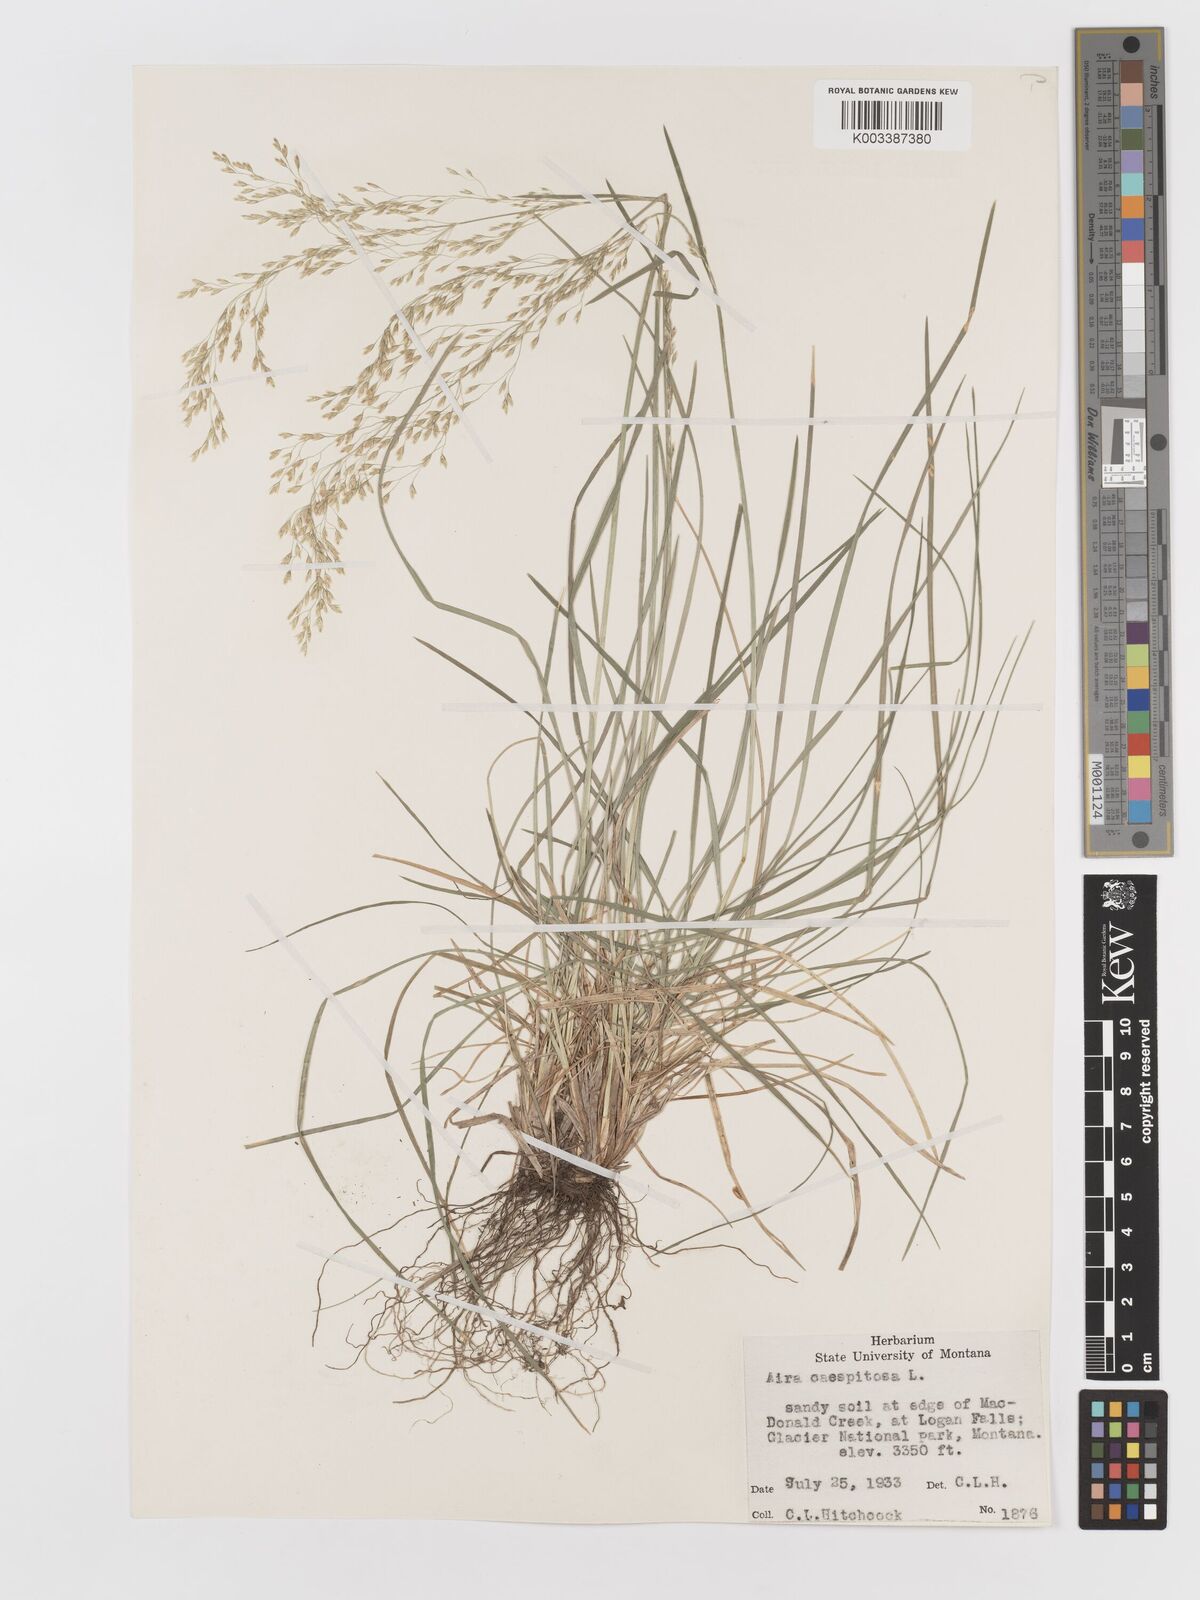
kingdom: Plantae
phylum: Tracheophyta
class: Liliopsida
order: Poales
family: Poaceae
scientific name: Poaceae
